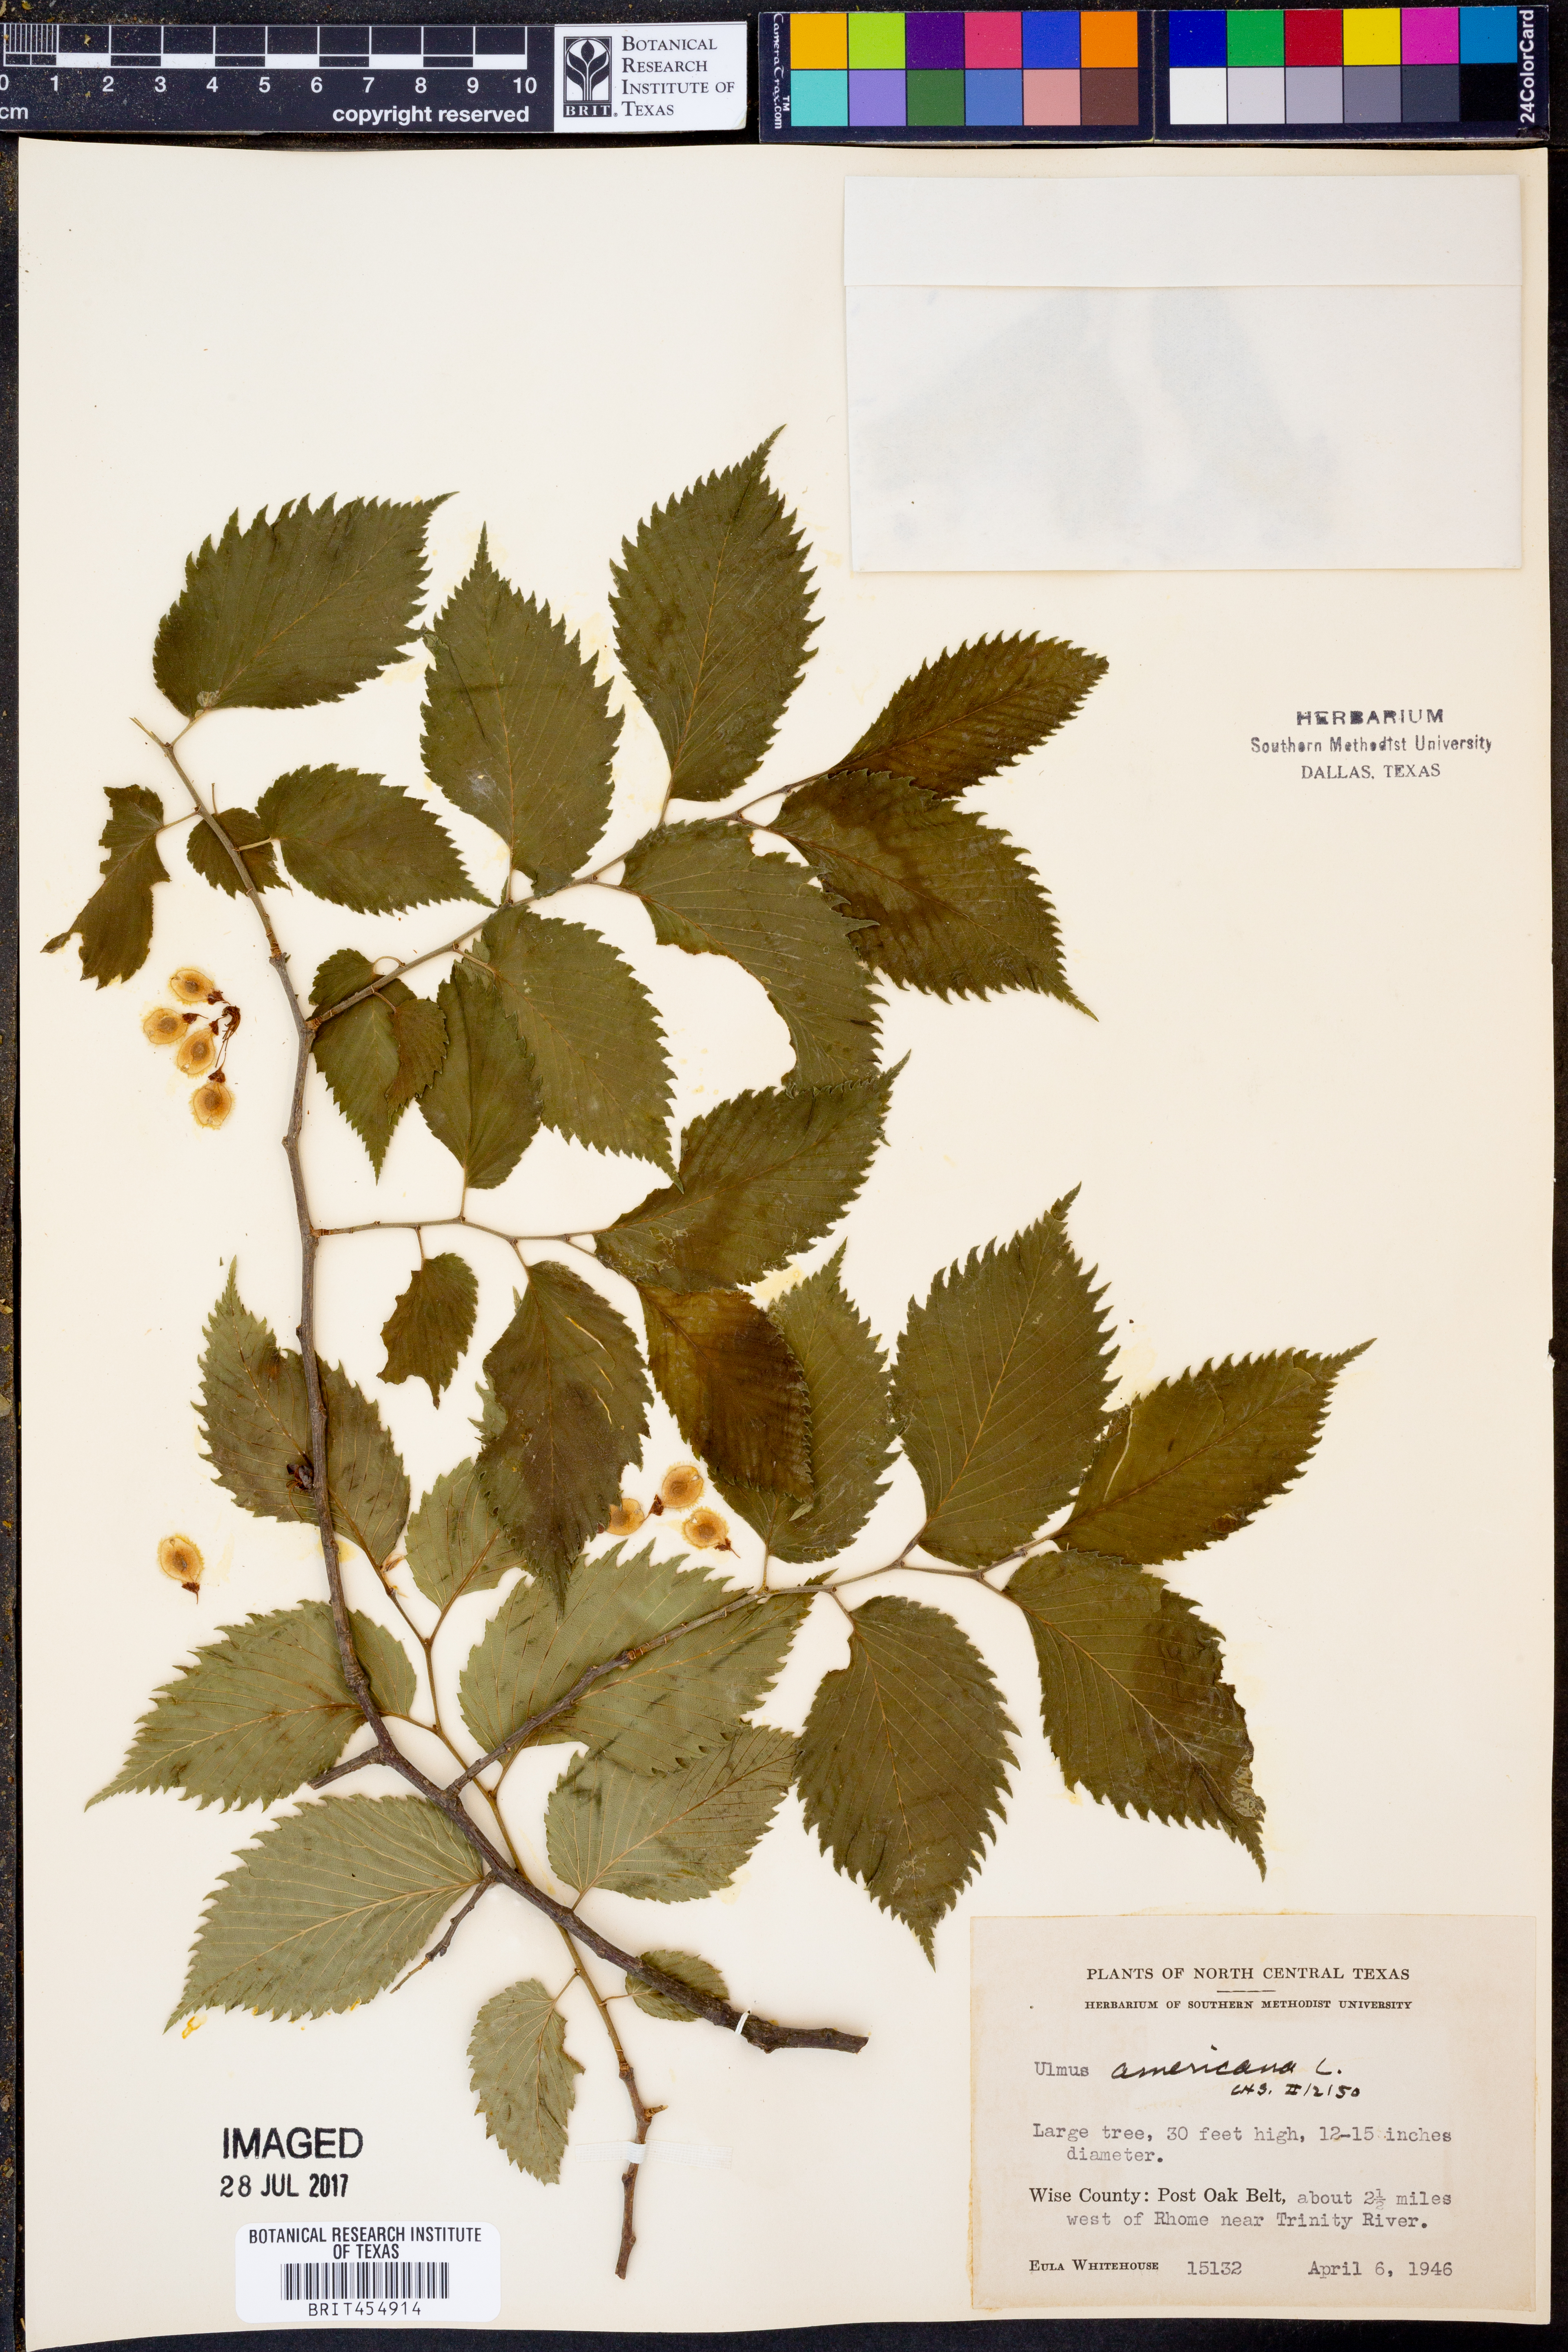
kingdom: Plantae
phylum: Tracheophyta
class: Magnoliopsida
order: Rosales
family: Ulmaceae
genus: Ulmus
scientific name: Ulmus americana
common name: American elm
